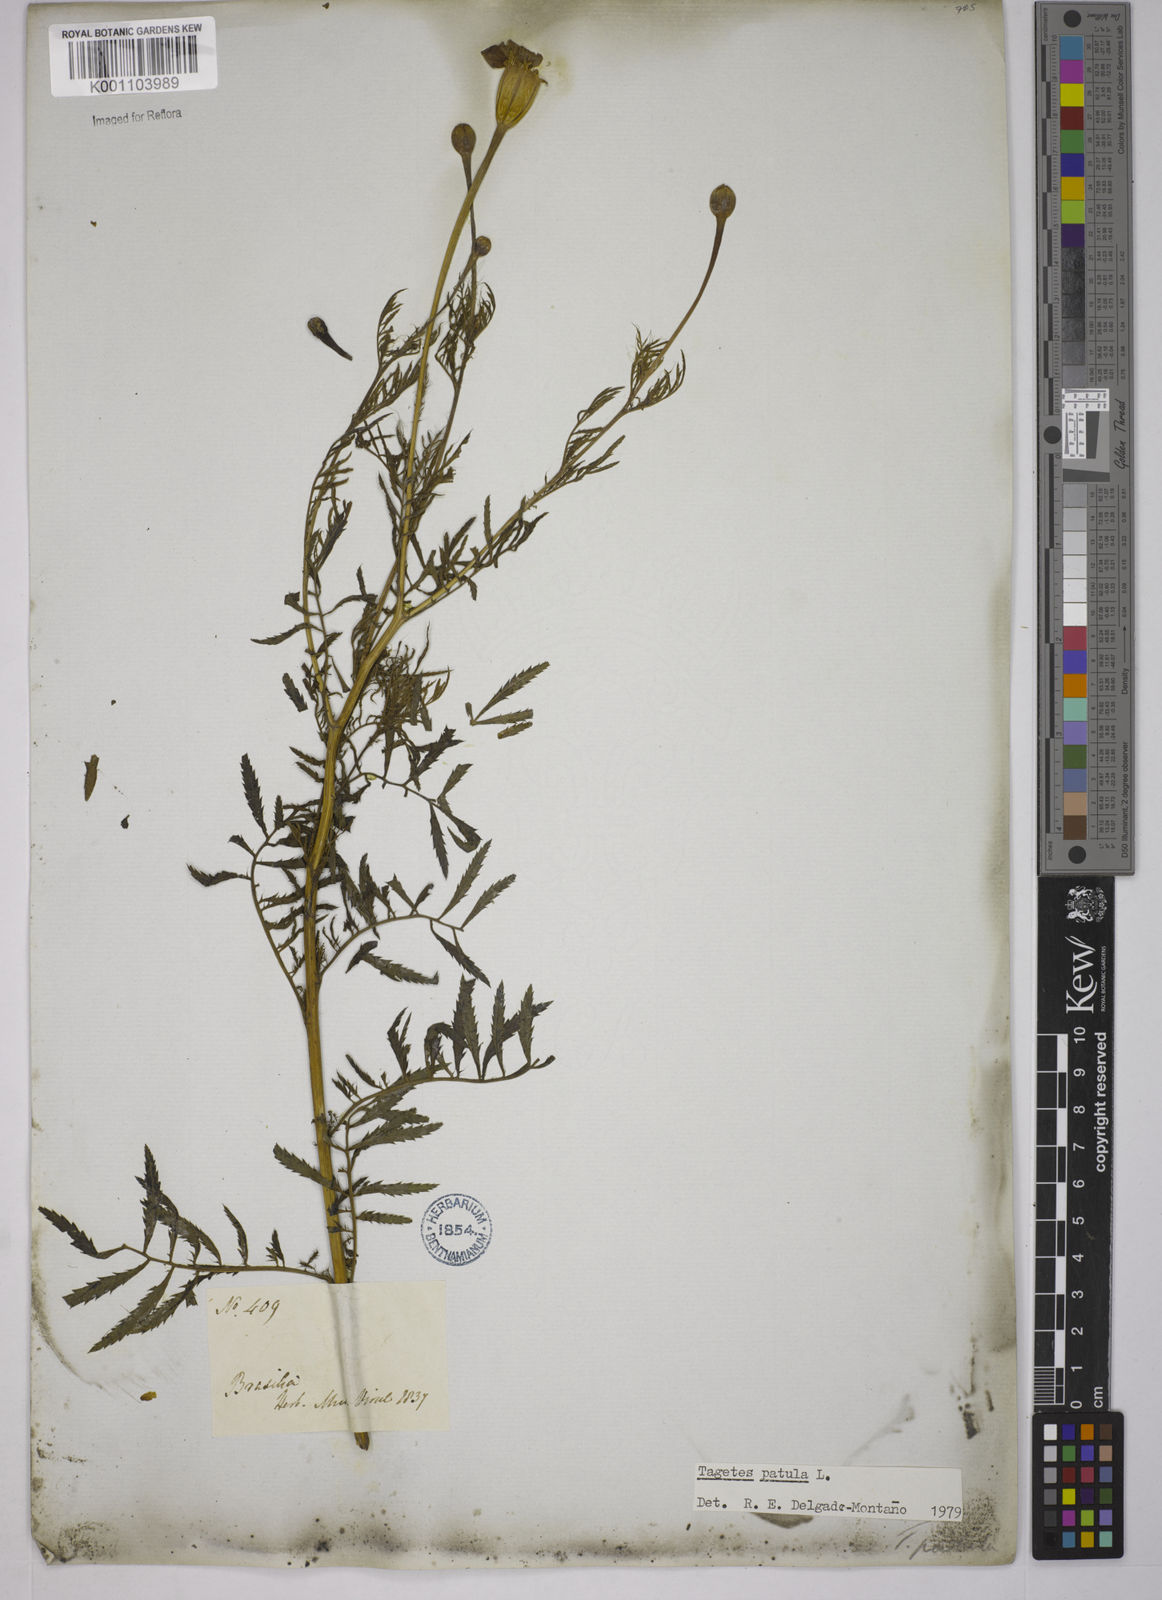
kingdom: Plantae
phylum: Tracheophyta
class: Magnoliopsida
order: Asterales
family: Asteraceae
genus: Tagetes
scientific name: Tagetes erecta
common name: African marigold
